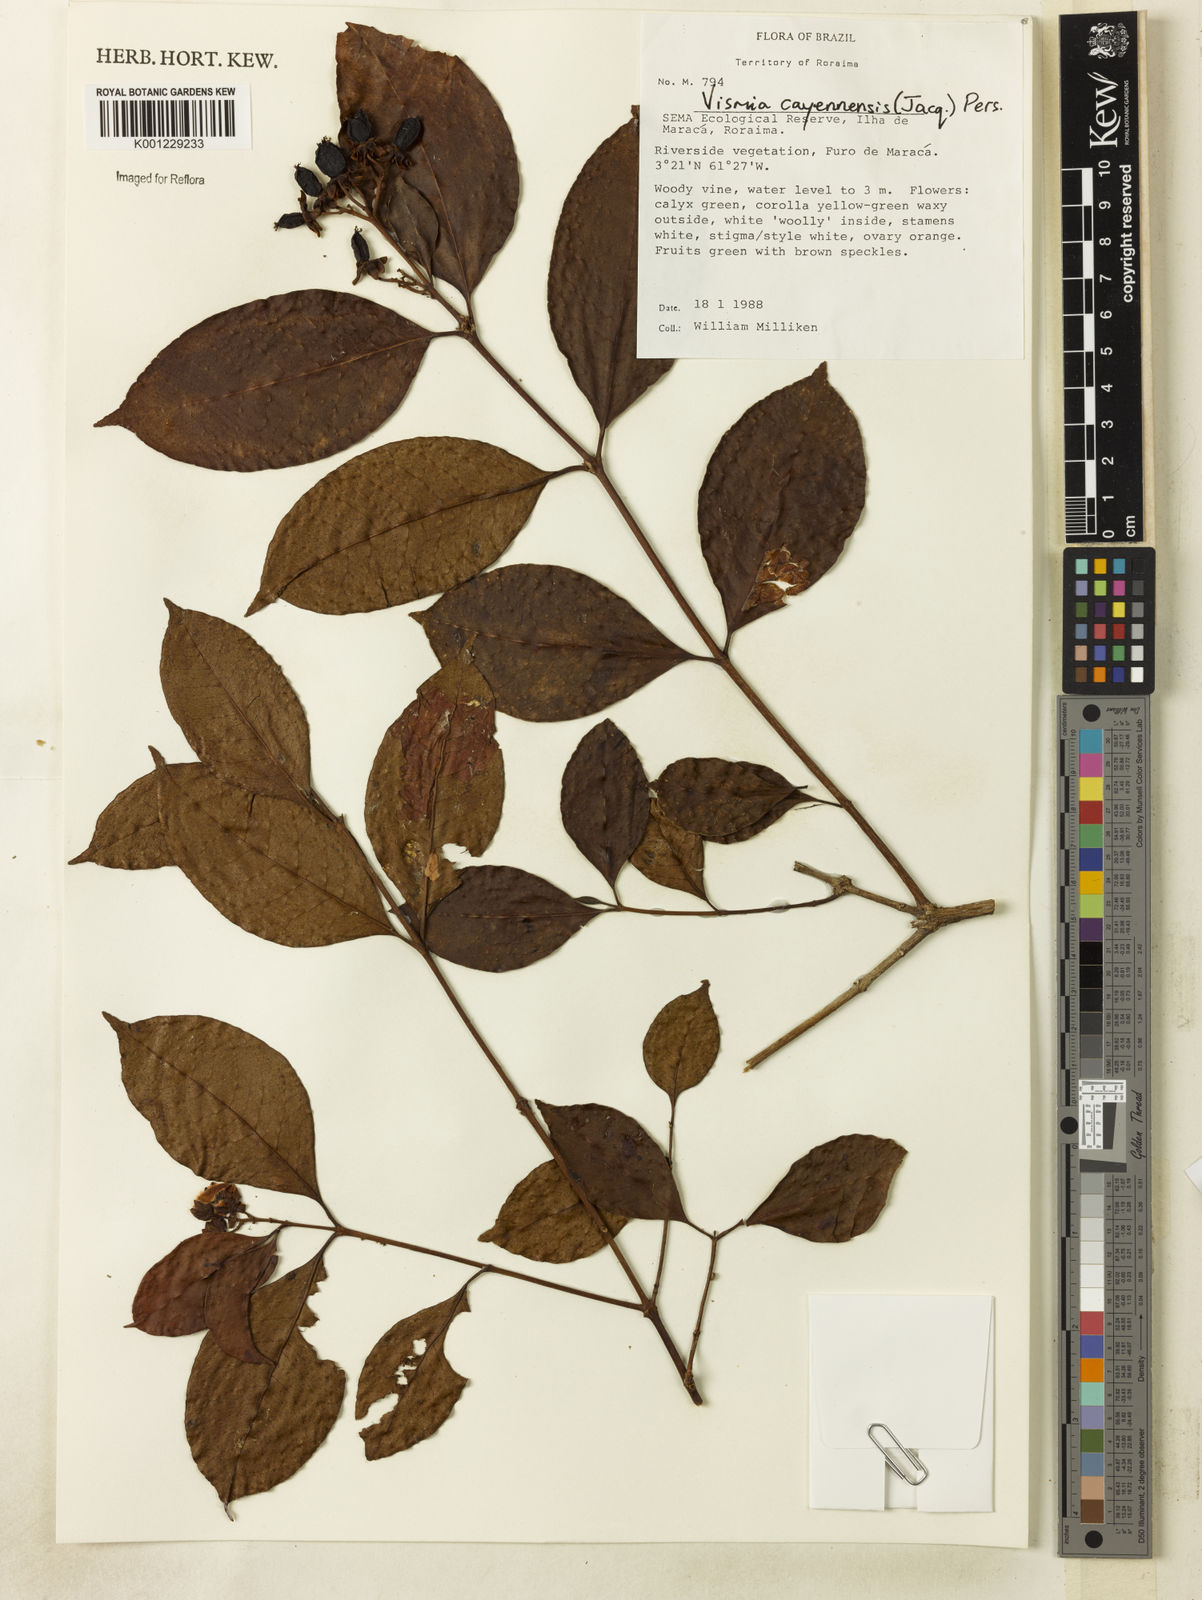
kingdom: Plantae
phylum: Tracheophyta
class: Liliopsida
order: Poales
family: Cyperaceae
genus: Rhynchospora
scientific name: Rhynchospora armerioides
